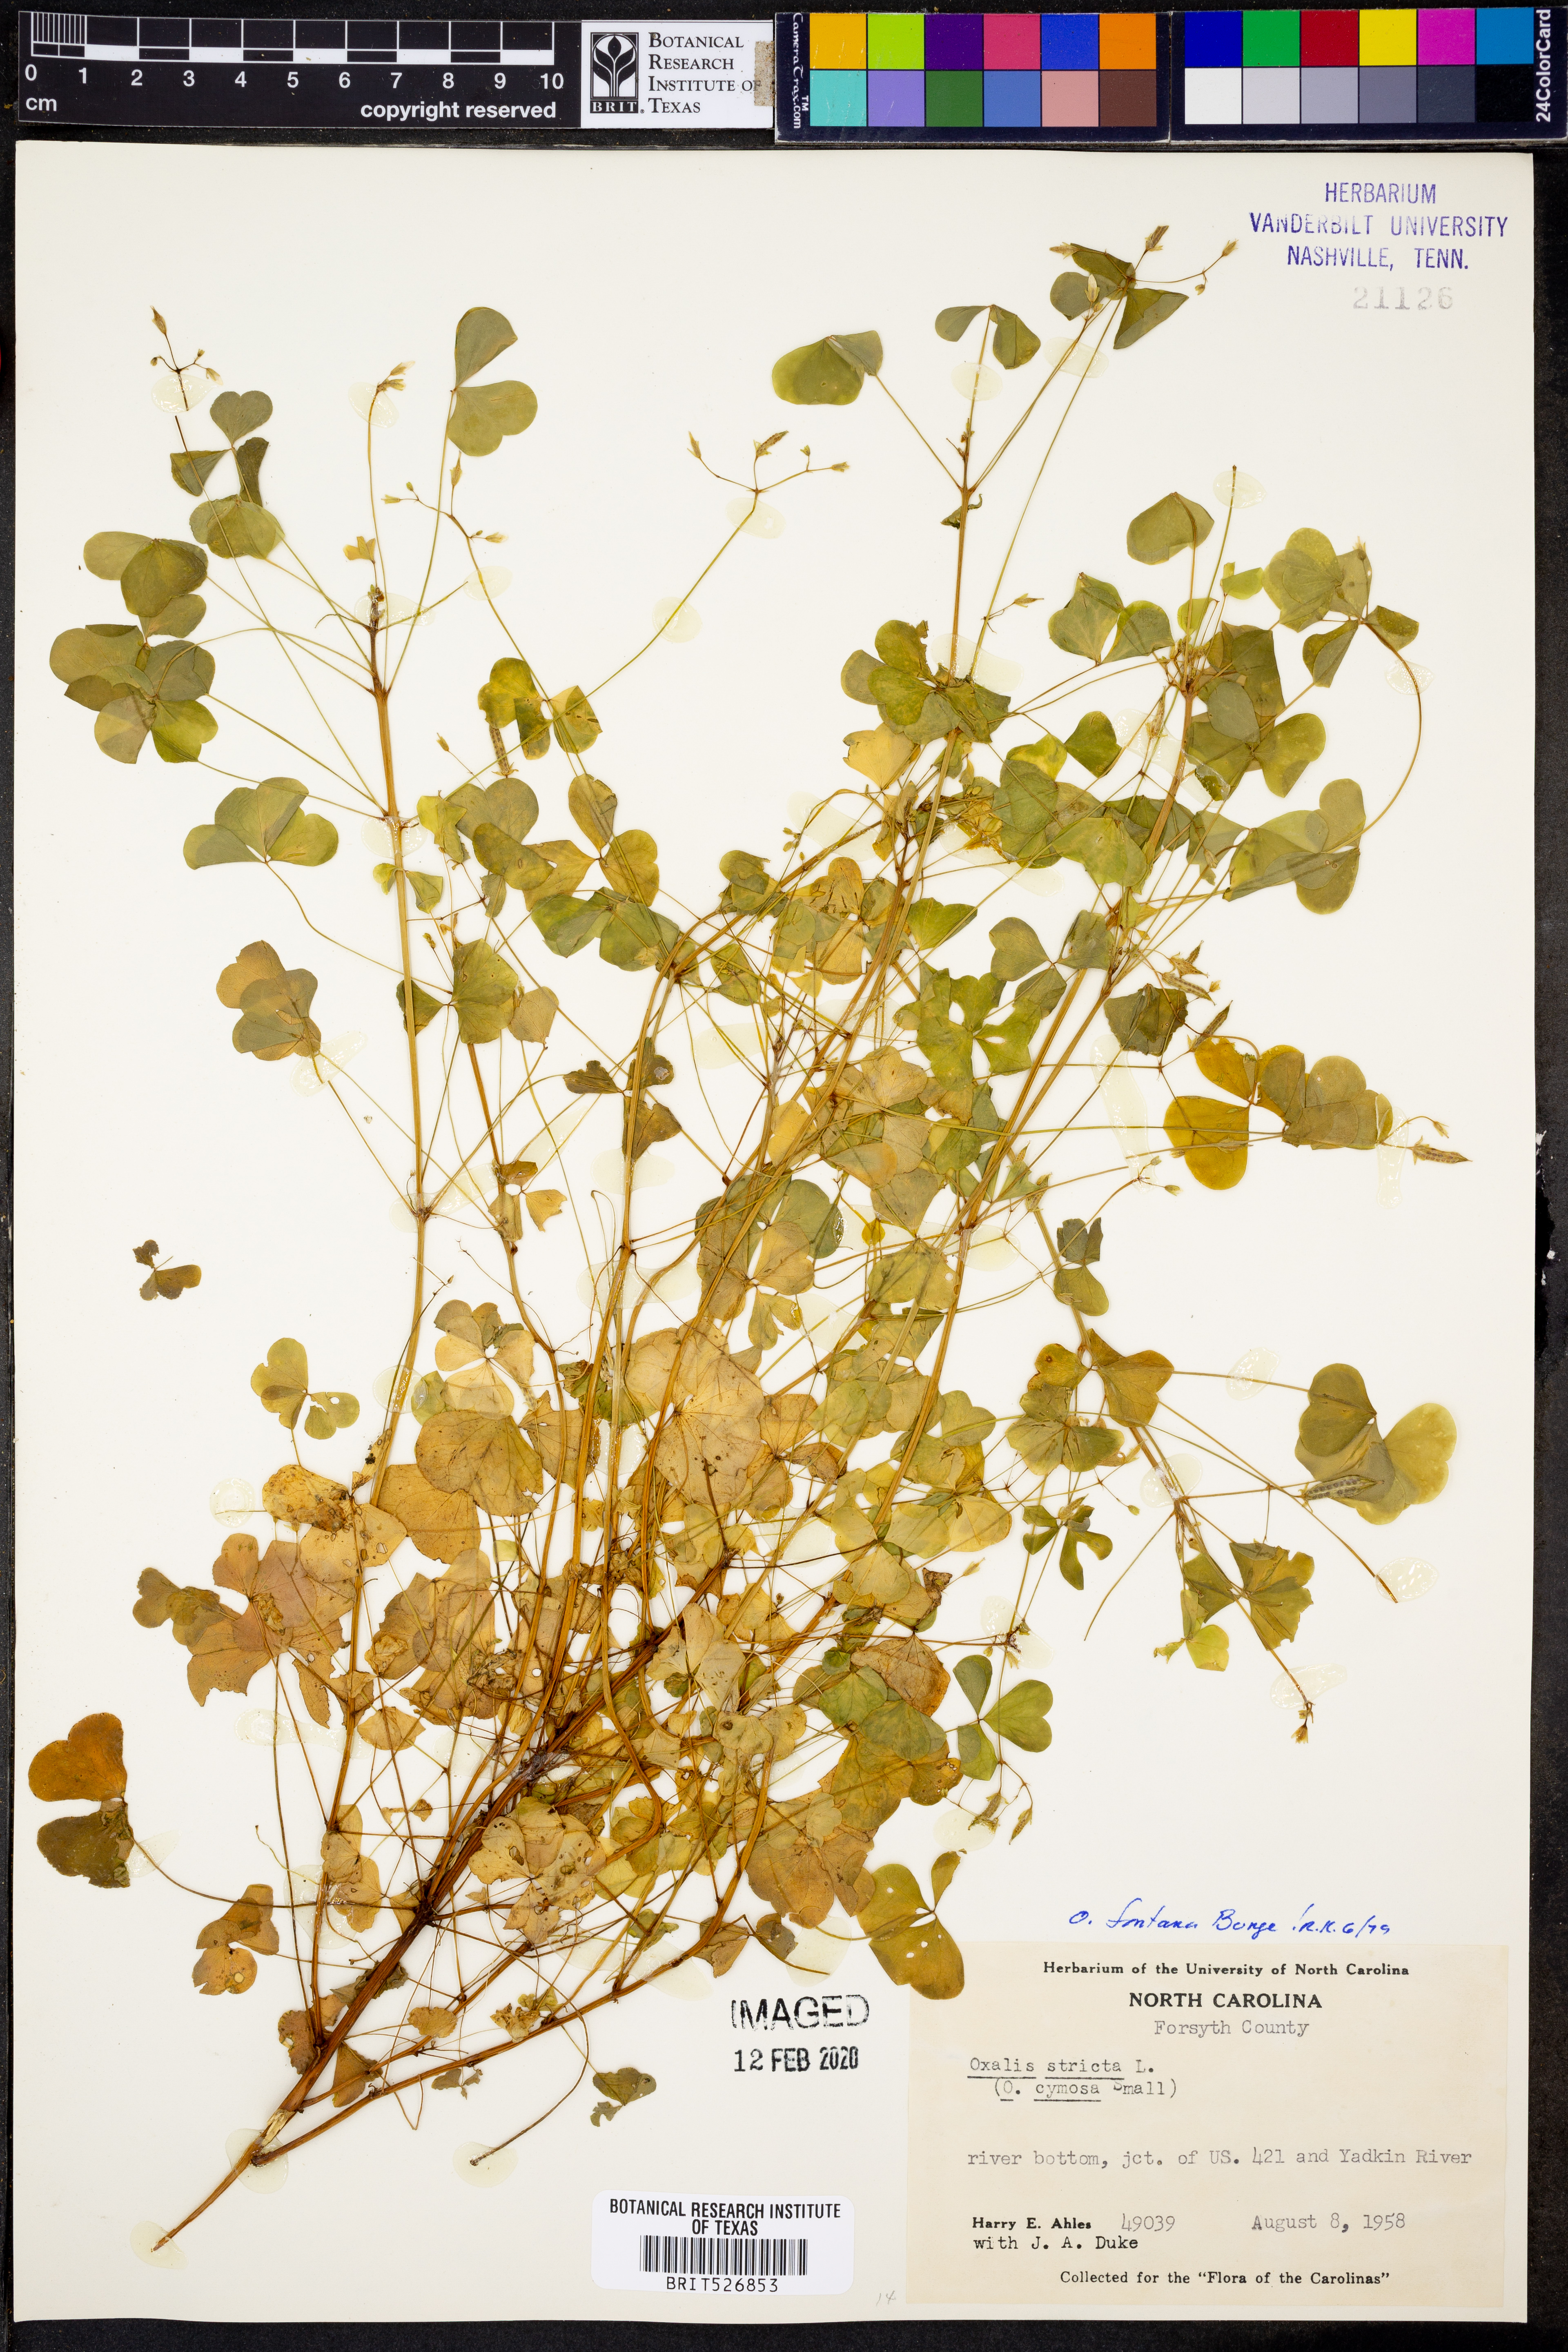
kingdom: Plantae
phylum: Tracheophyta
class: Magnoliopsida
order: Oxalidales
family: Oxalidaceae
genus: Oxalis
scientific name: Oxalis stricta
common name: Upright yellow-sorrel
